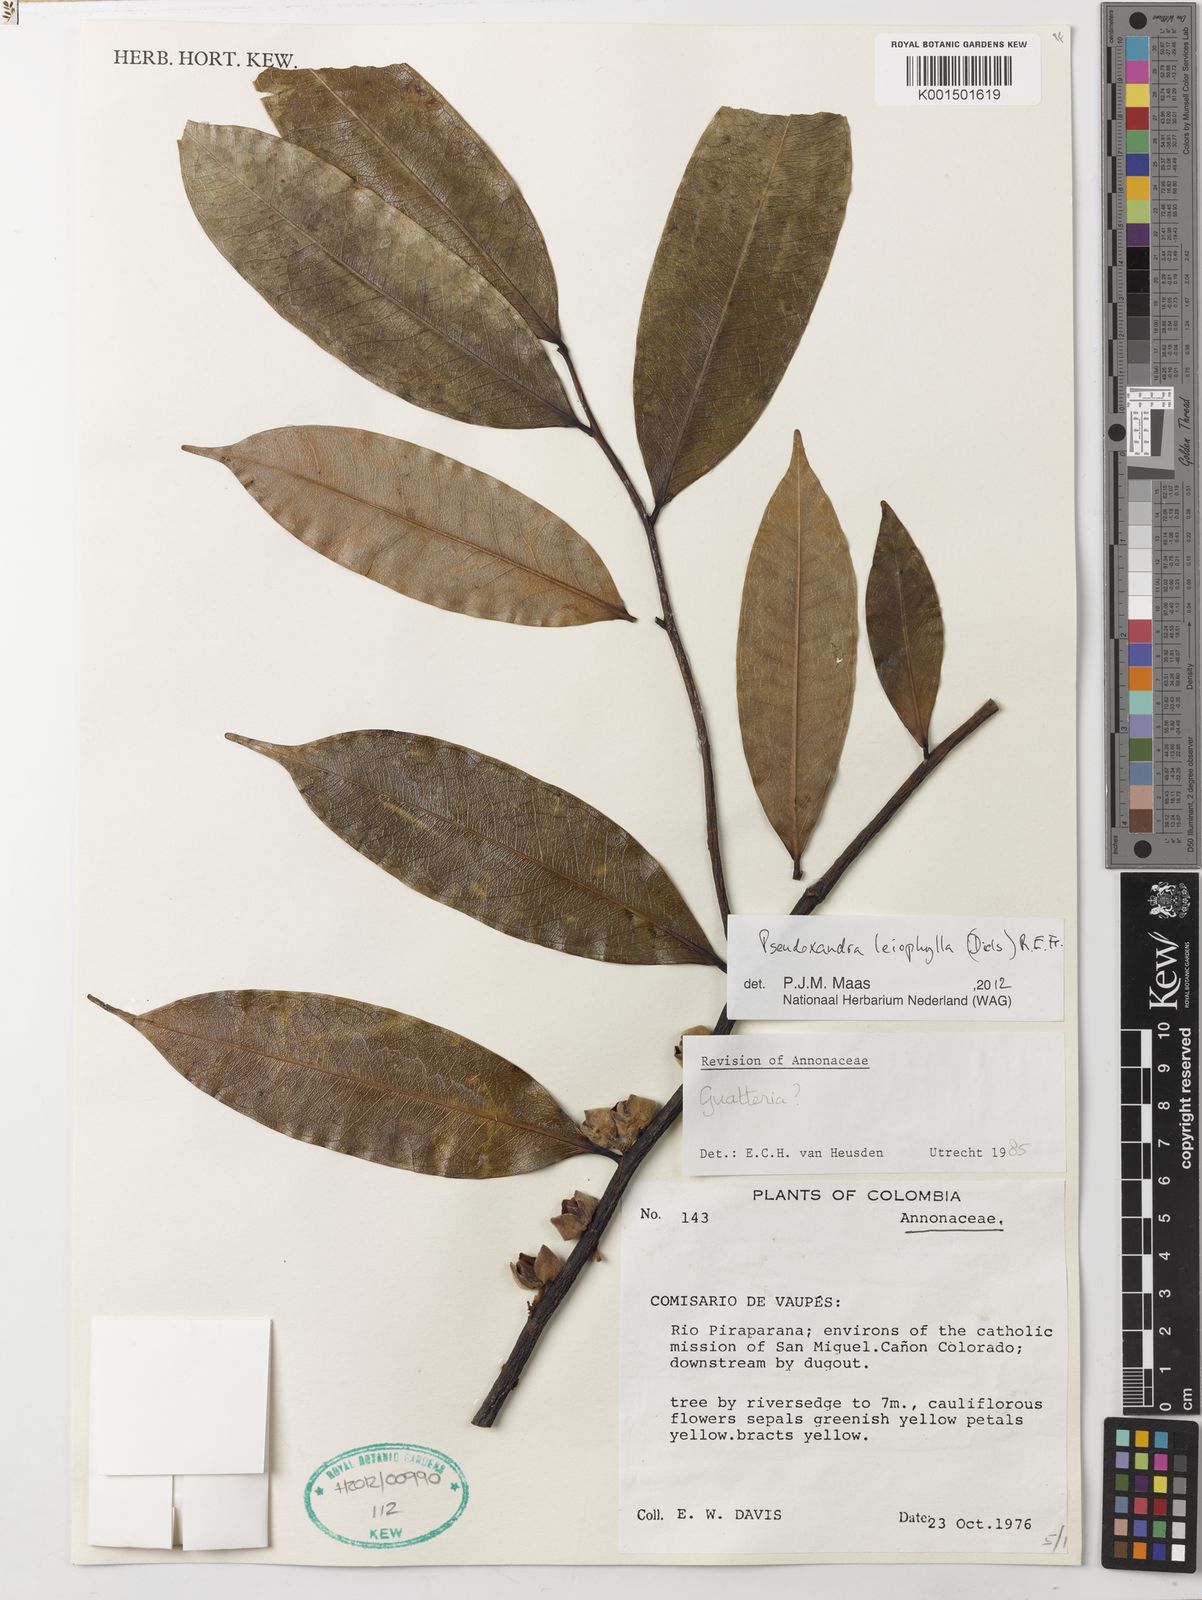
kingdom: Plantae
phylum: Tracheophyta
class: Magnoliopsida
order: Magnoliales
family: Annonaceae
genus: Pseudoxandra
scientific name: Pseudoxandra leiophylla
